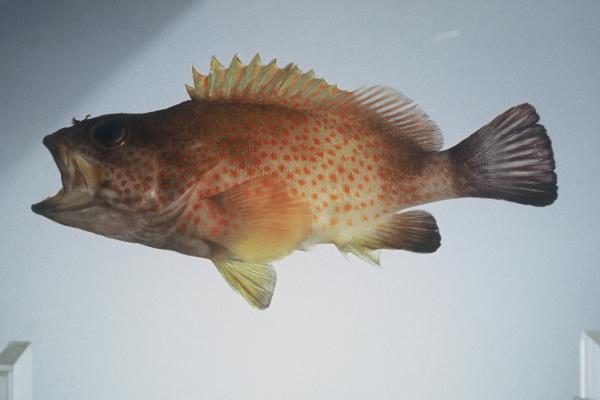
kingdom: Animalia
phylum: Chordata
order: Perciformes
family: Serranidae
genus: Acanthistius
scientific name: Acanthistius sebastoides
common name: Koester
